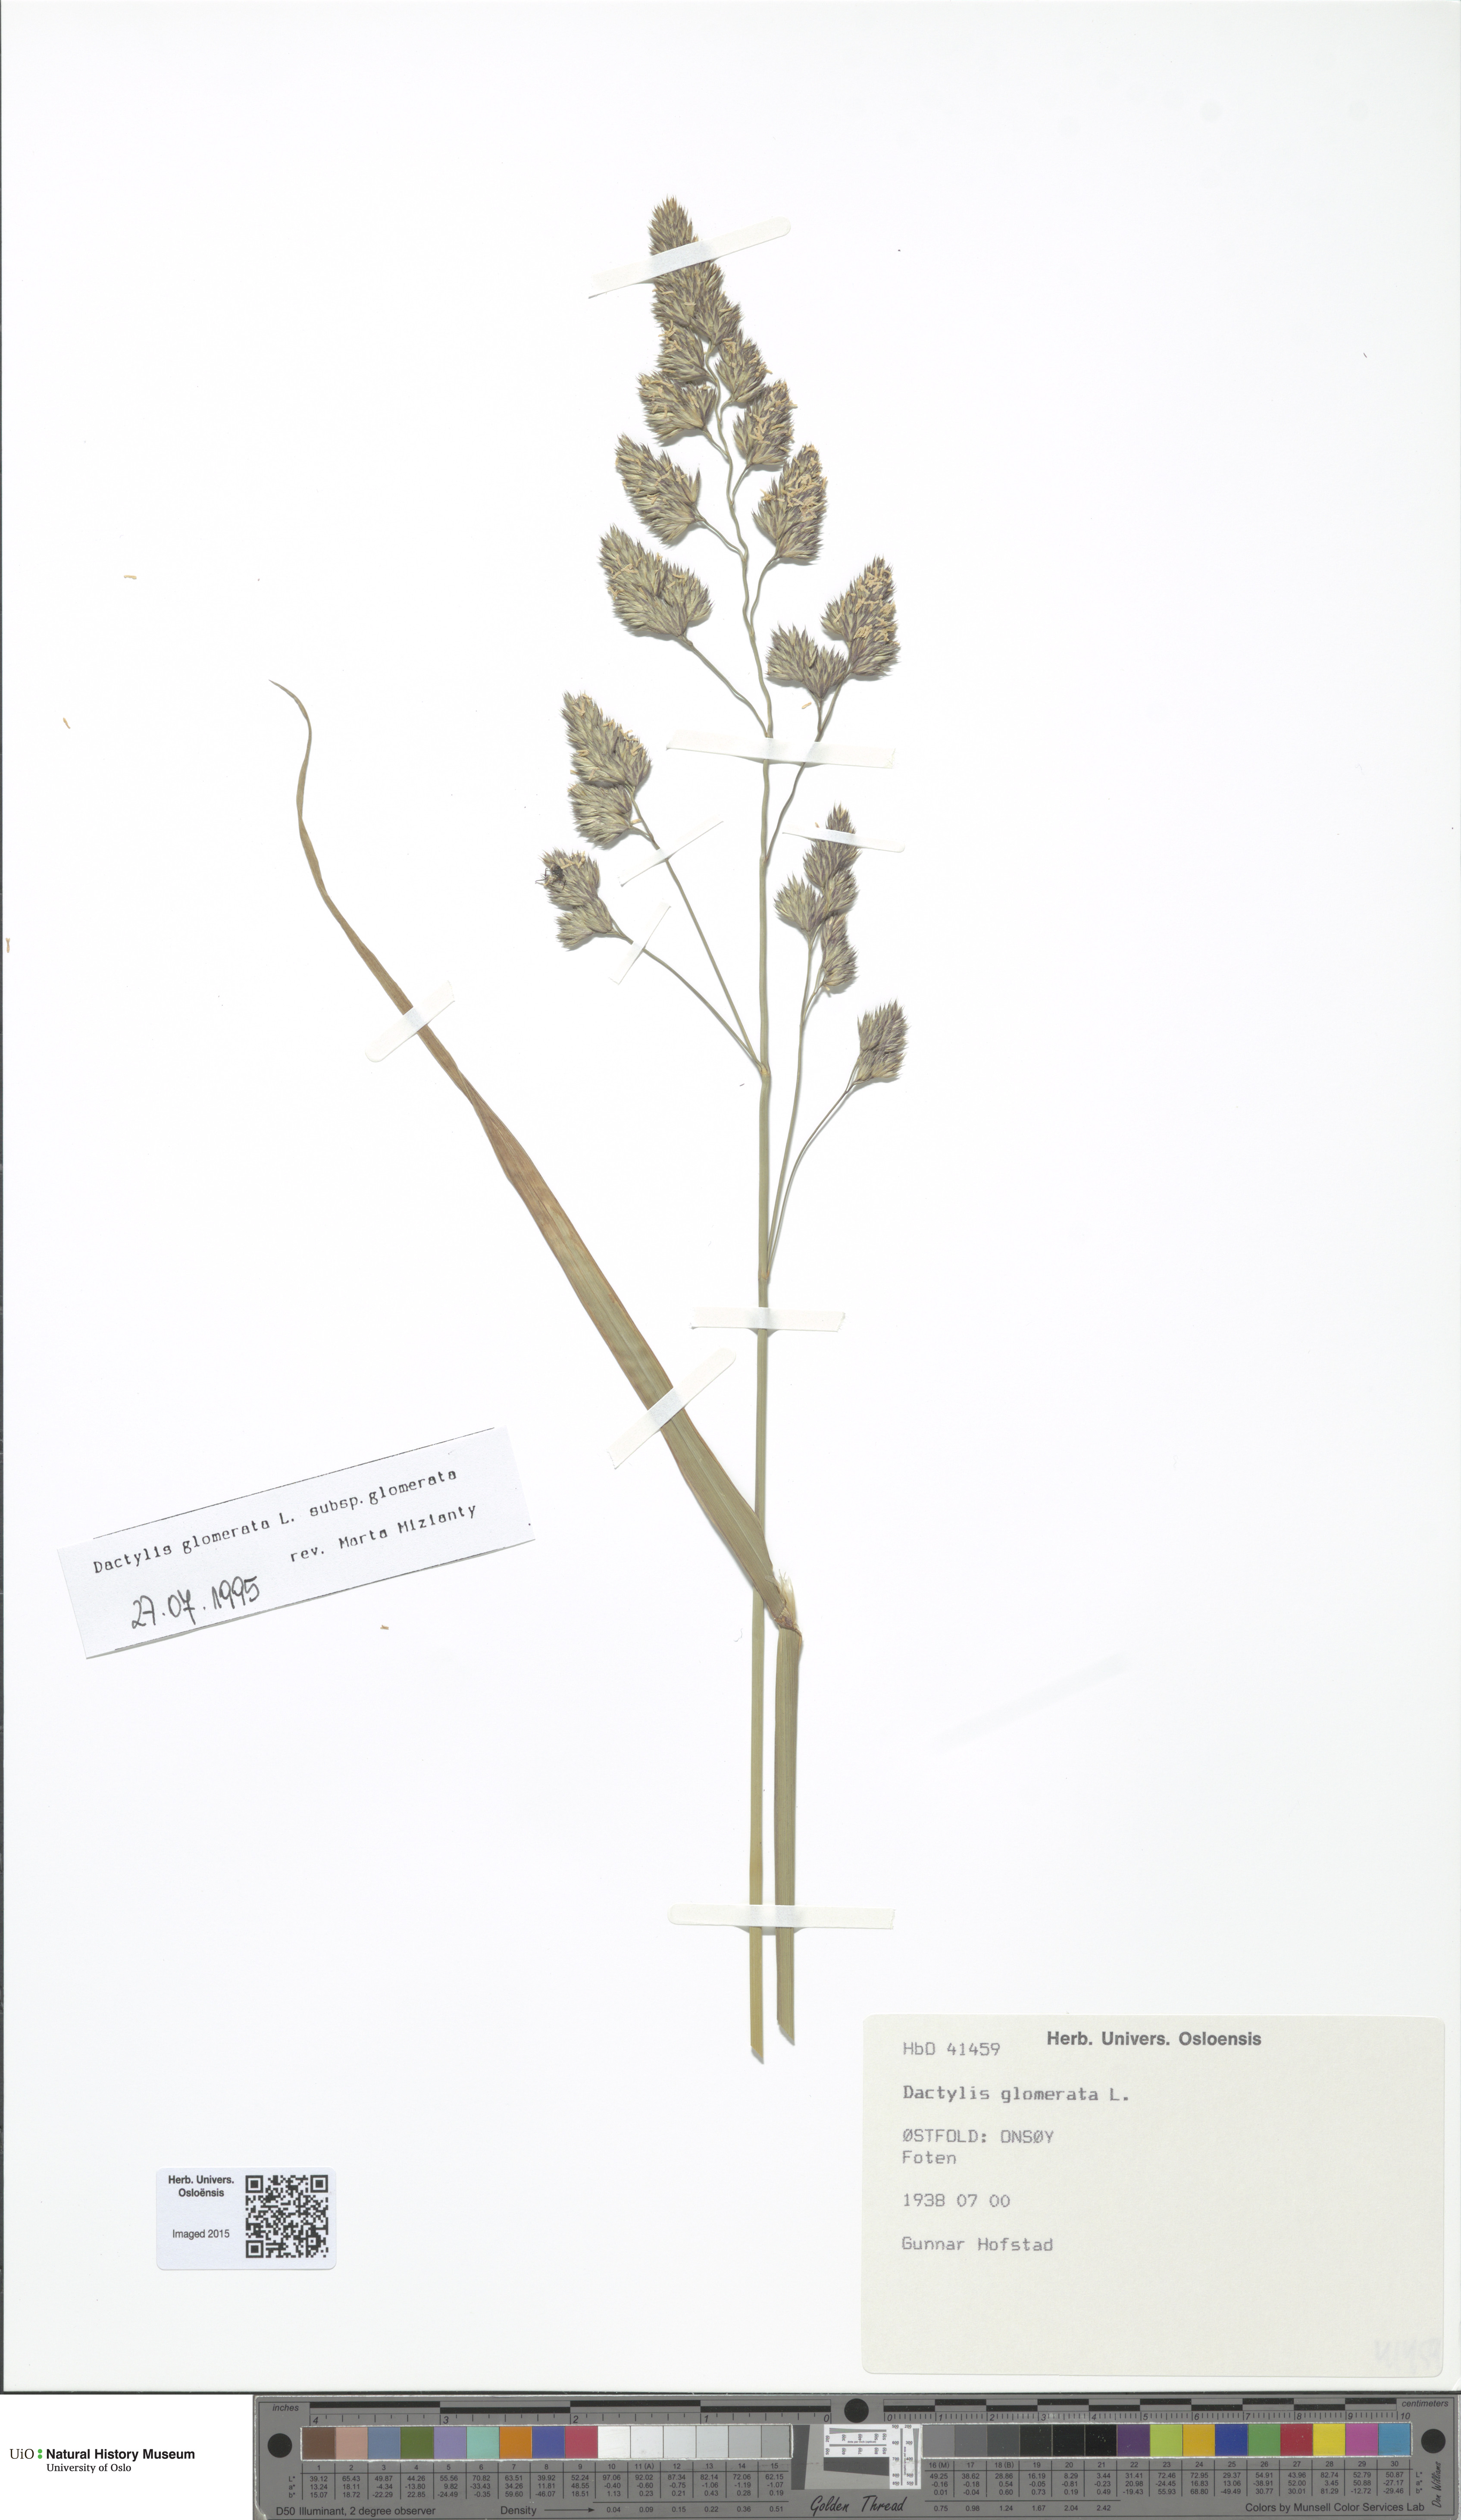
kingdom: Plantae
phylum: Tracheophyta
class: Liliopsida
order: Poales
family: Poaceae
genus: Dactylis
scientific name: Dactylis glomerata
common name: Orchardgrass
